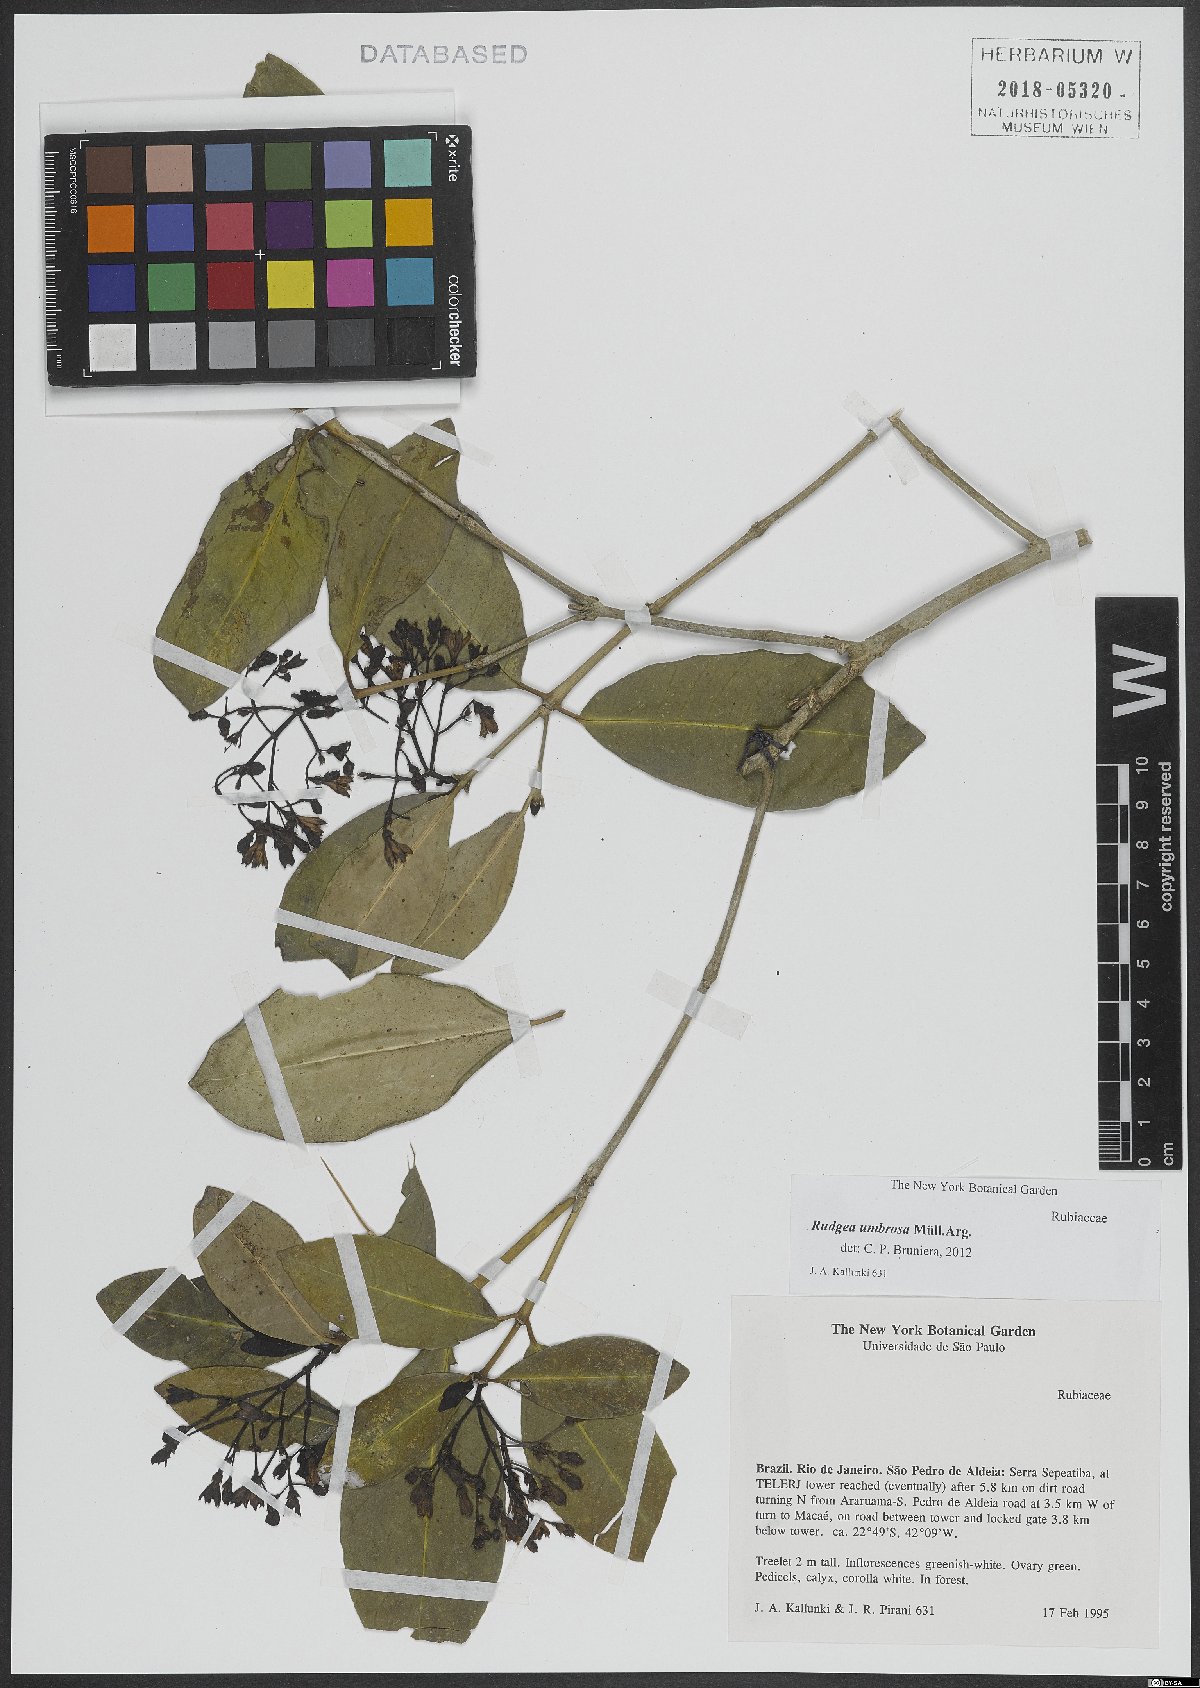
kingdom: Plantae
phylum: Tracheophyta
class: Magnoliopsida
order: Gentianales
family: Rubiaceae
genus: Rudgea
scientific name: Rudgea umbrosa
